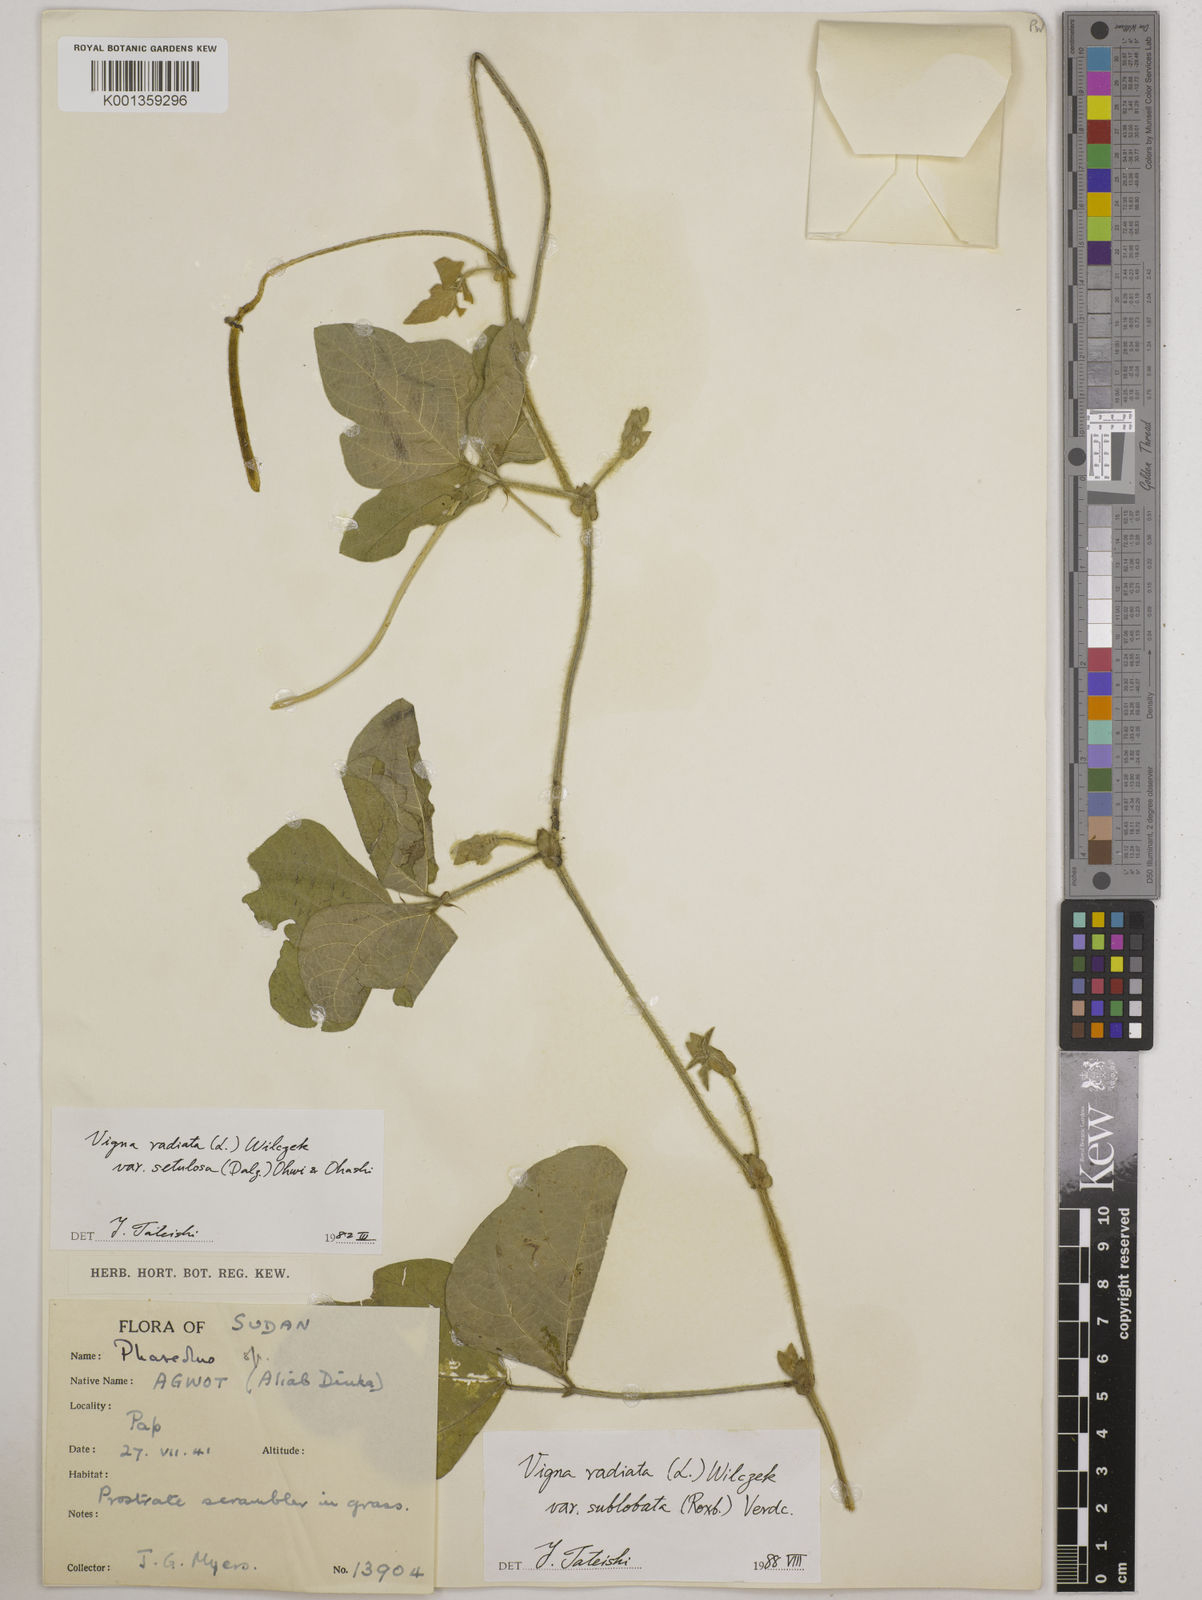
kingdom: Plantae
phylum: Tracheophyta
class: Magnoliopsida
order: Fabales
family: Fabaceae
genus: Vigna
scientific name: Vigna radiata
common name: Mung-bean
